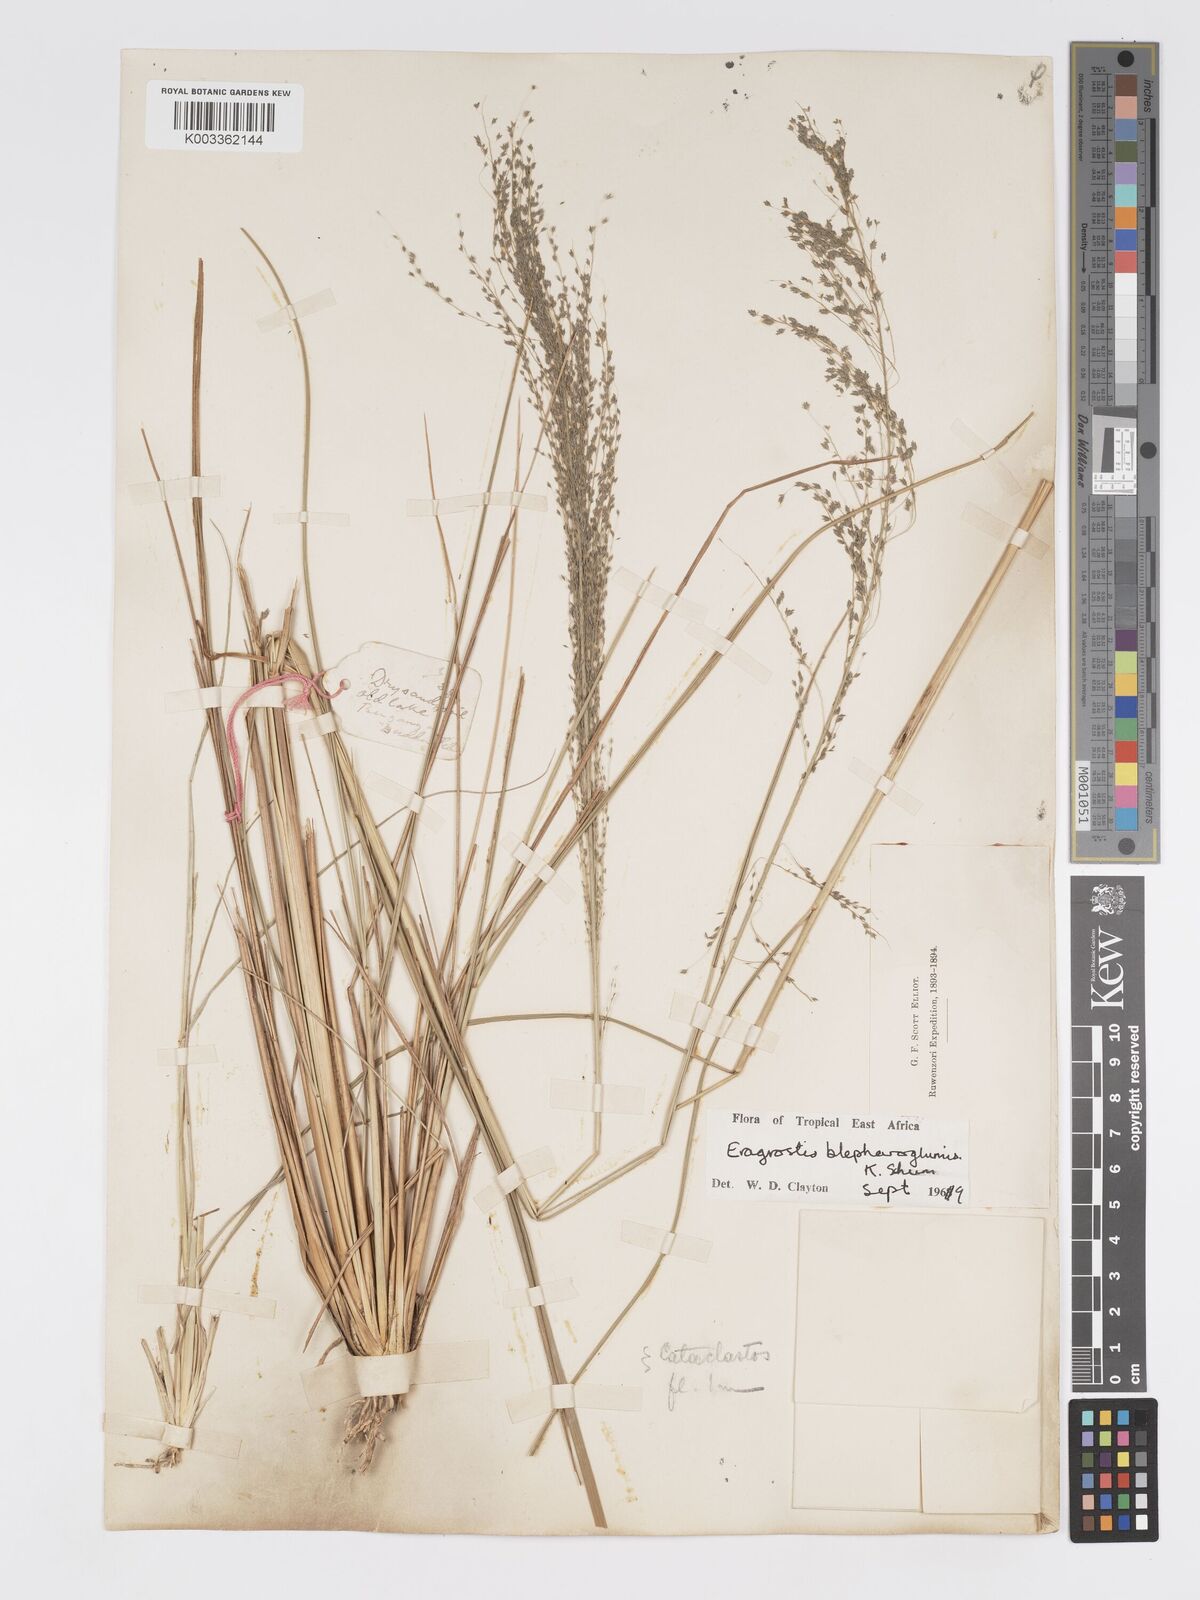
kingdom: Plantae
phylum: Tracheophyta
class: Liliopsida
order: Poales
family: Poaceae
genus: Eragrostis
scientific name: Eragrostis olivacea
